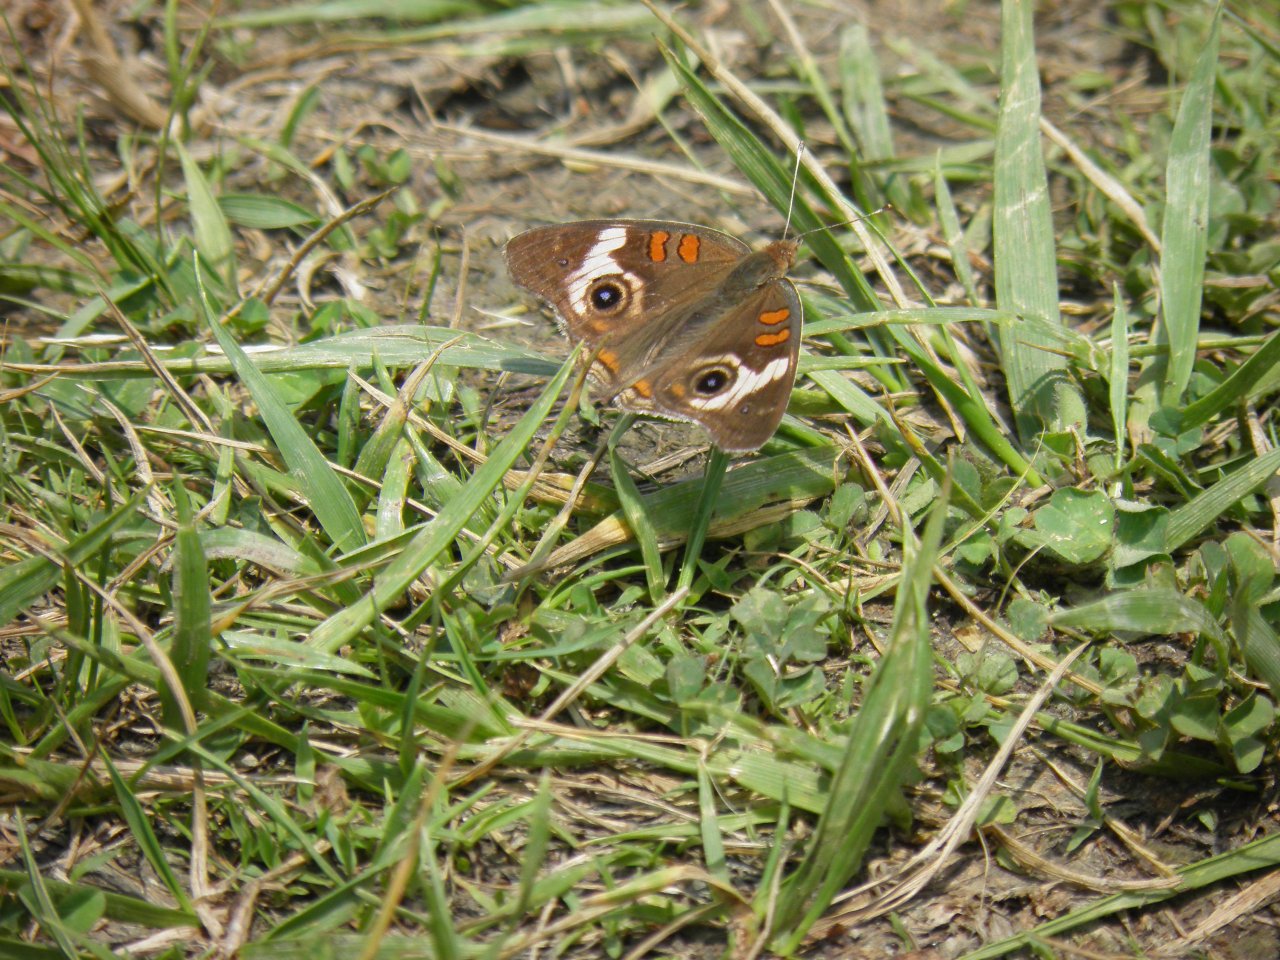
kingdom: Animalia
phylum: Arthropoda
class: Insecta
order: Lepidoptera
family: Nymphalidae
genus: Junonia
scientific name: Junonia coenia
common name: Common Buckeye
